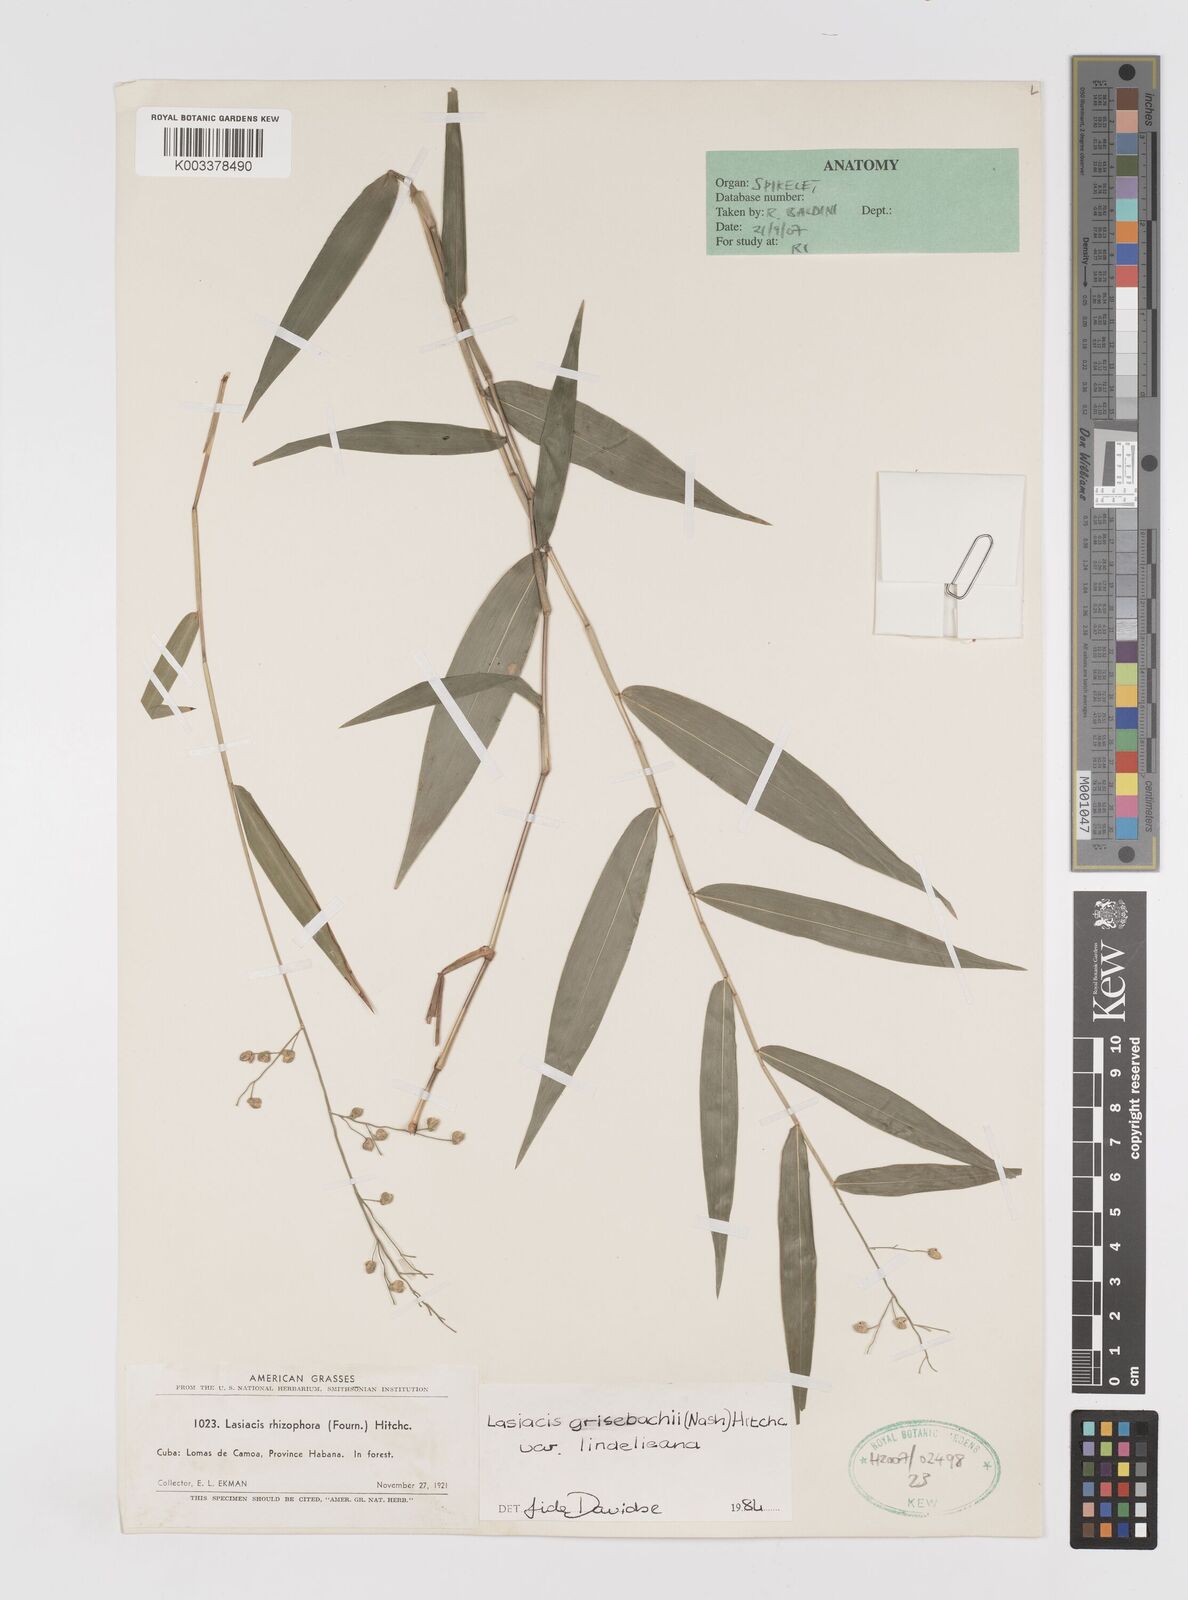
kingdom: Plantae
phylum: Tracheophyta
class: Liliopsida
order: Poales
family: Poaceae
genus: Lasiacis
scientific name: Lasiacis grisebachii
